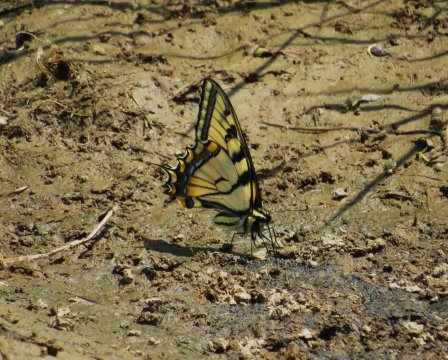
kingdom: Animalia
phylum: Arthropoda
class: Insecta
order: Lepidoptera
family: Papilionidae
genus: Pterourus
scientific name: Pterourus glaucus
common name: Eastern Tiger Swallowtail
